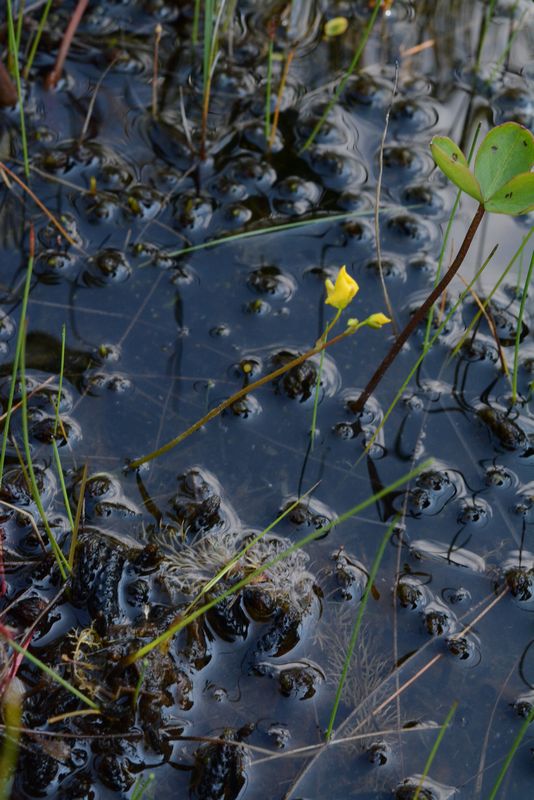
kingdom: Plantae
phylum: Tracheophyta
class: Magnoliopsida
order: Lamiales
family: Lentibulariaceae
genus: Utricularia
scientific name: Utricularia intermedia
